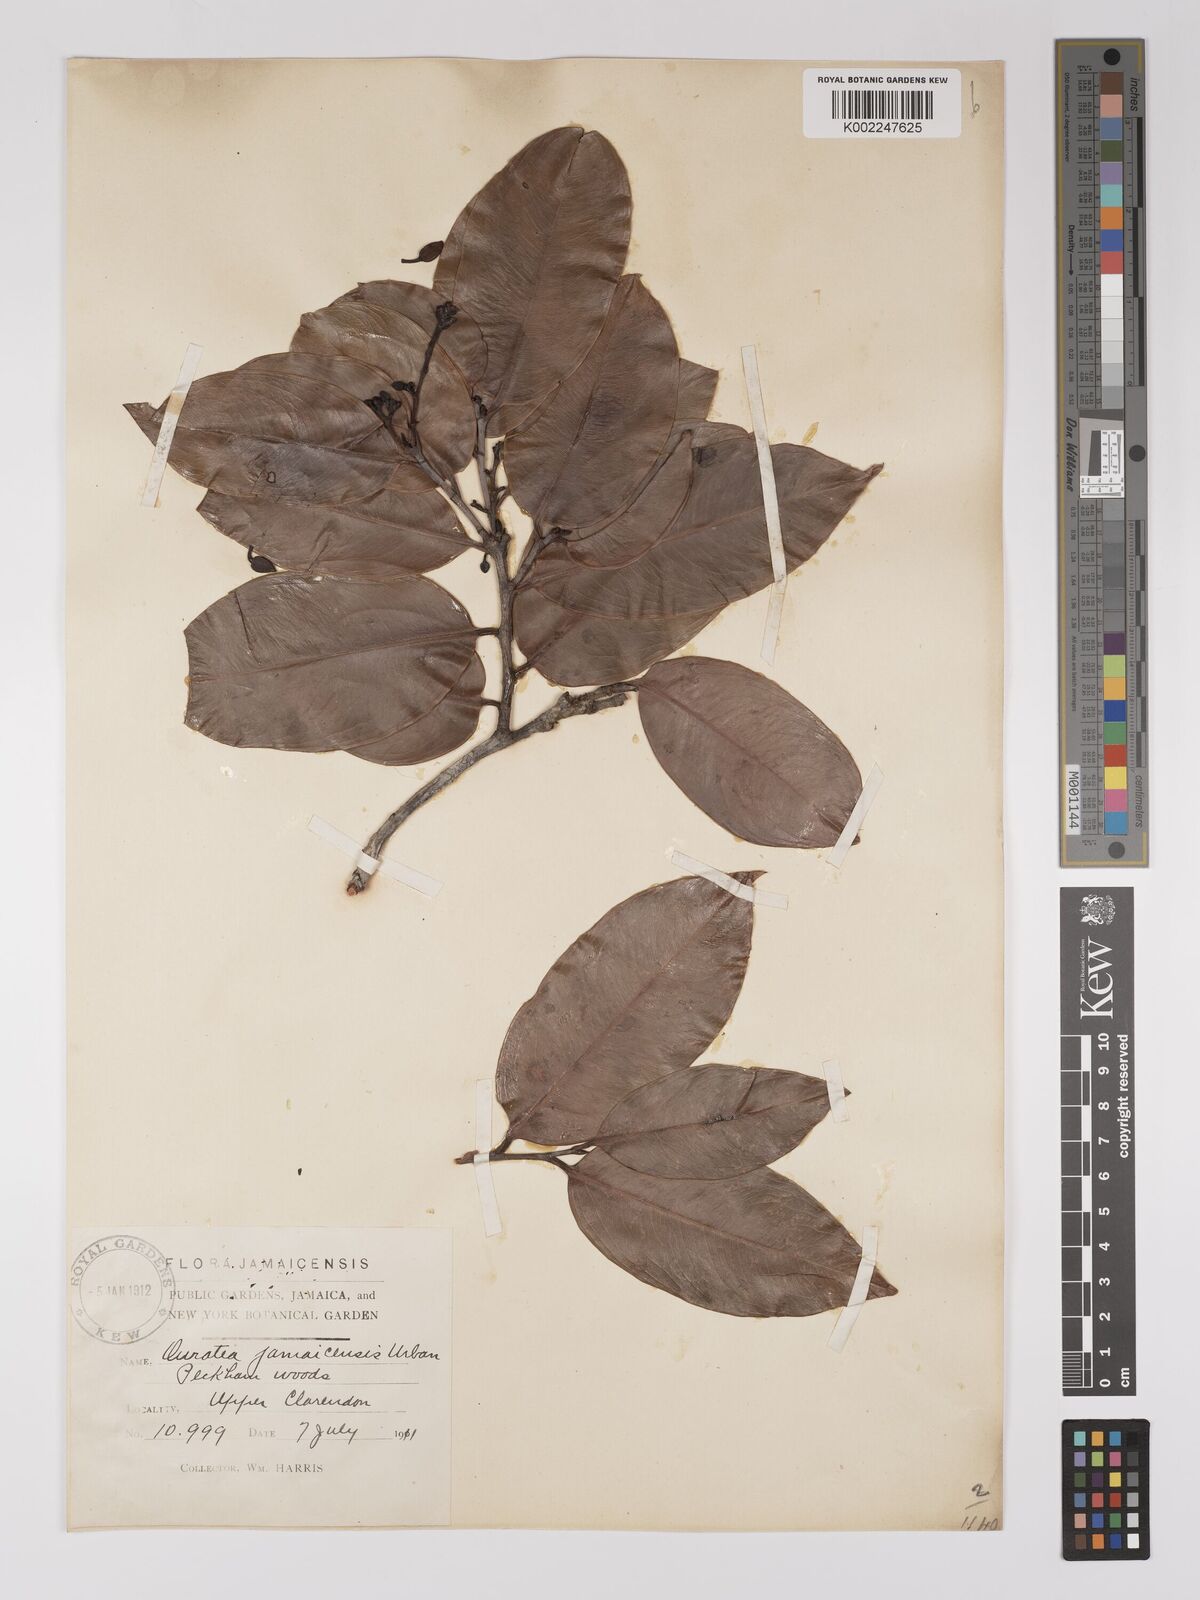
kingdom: Plantae
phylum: Tracheophyta
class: Magnoliopsida
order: Malpighiales
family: Ochnaceae
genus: Ouratea
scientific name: Ouratea jamaicensis
